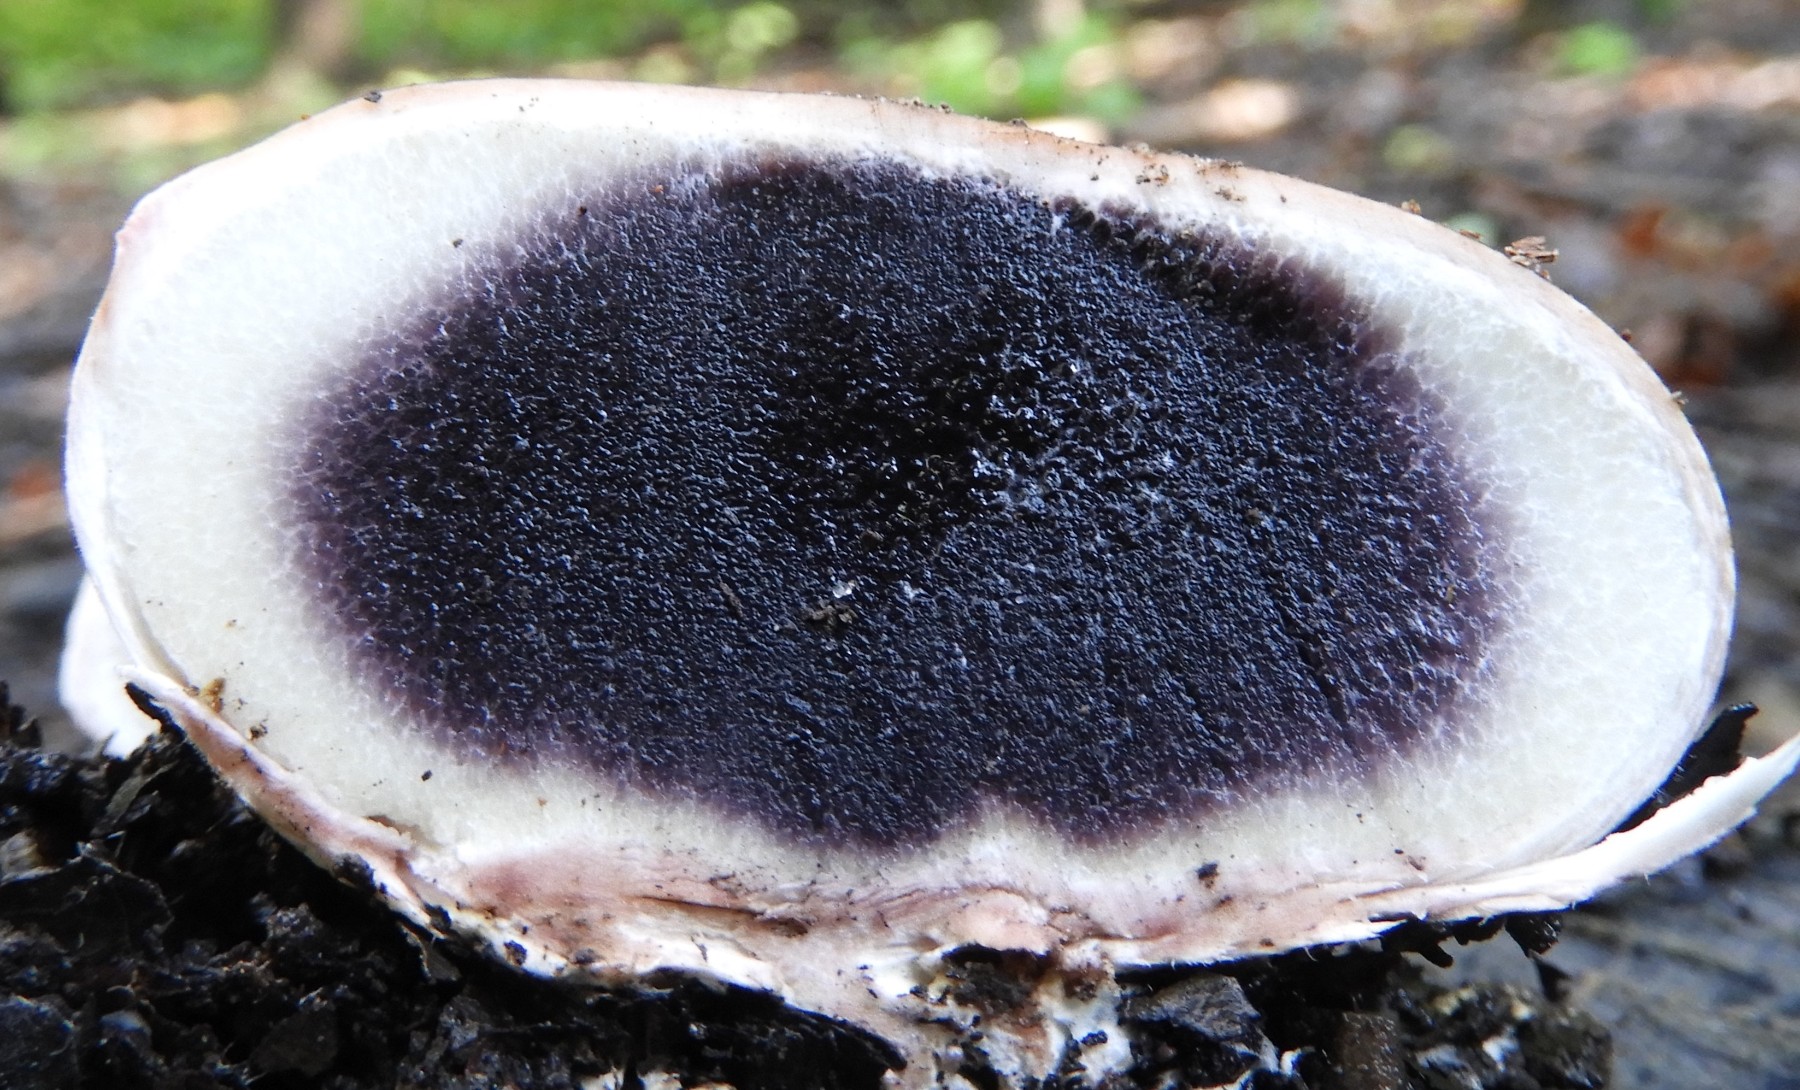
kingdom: Fungi
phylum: Basidiomycota
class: Agaricomycetes
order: Boletales
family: Sclerodermataceae
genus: Scleroderma
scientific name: Scleroderma citrinum
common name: almindelig bruskbold
